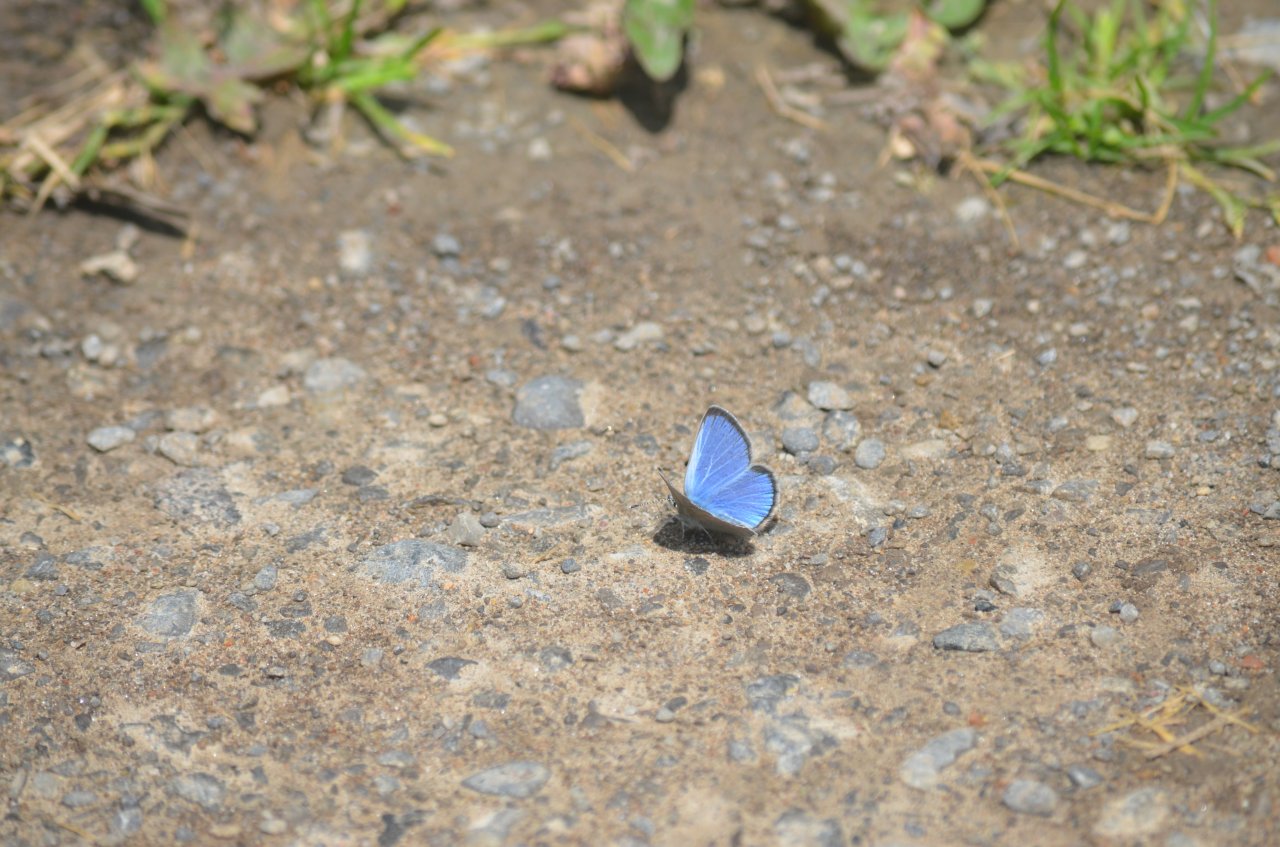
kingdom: Animalia
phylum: Arthropoda
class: Insecta
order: Lepidoptera
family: Lycaenidae
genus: Glaucopsyche
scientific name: Glaucopsyche lygdamus
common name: Silvery Blue
